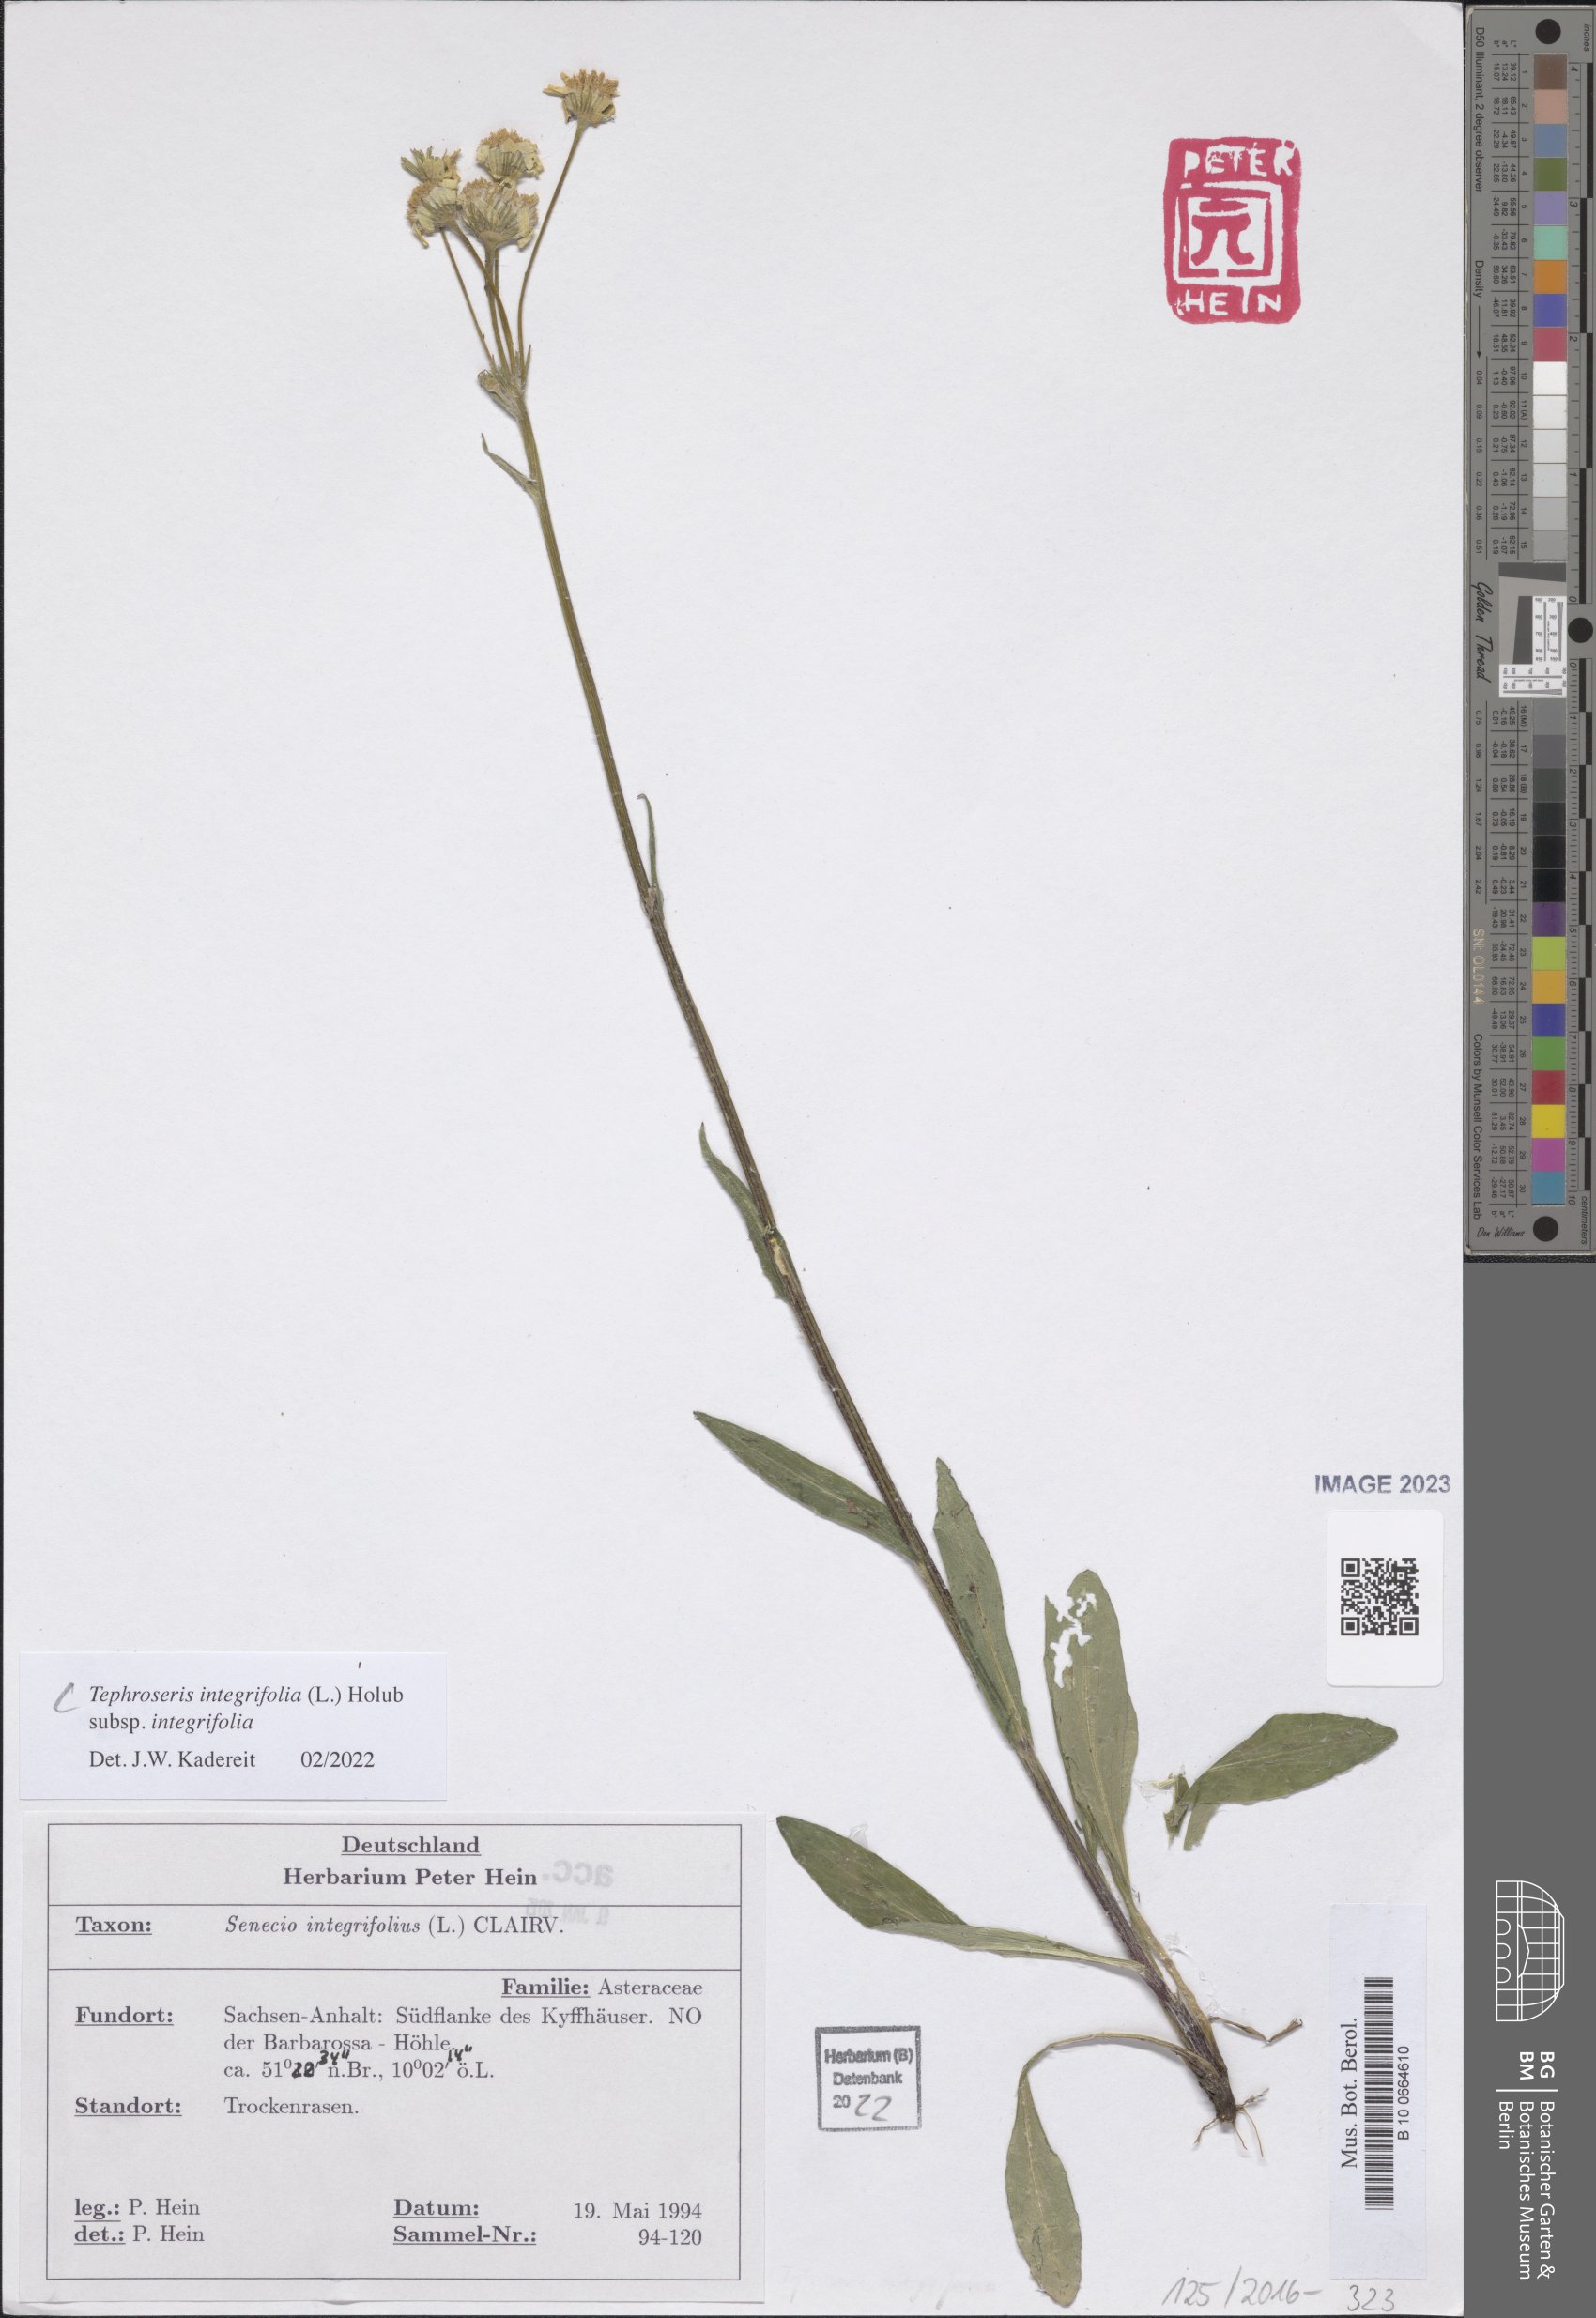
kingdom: Plantae
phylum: Tracheophyta
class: Magnoliopsida
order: Asterales
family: Asteraceae
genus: Tephroseris
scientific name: Tephroseris integrifolia
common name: Field fleawort
